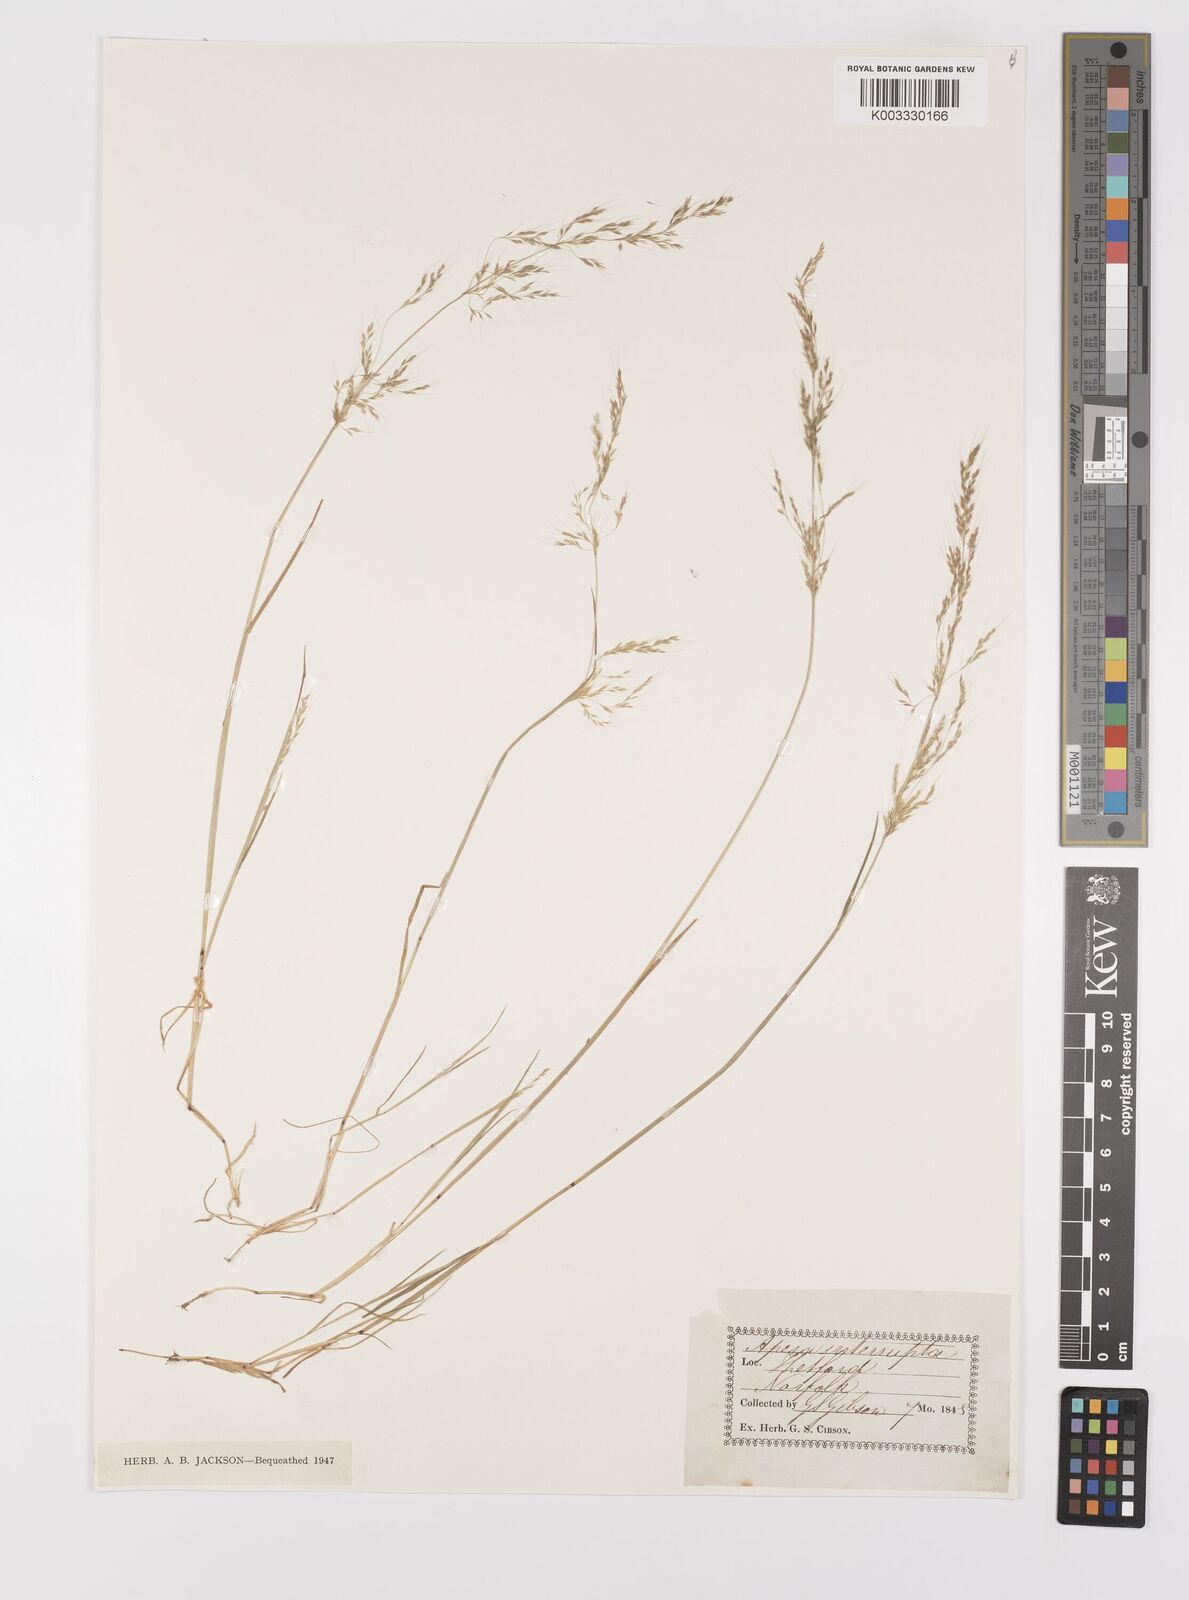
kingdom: Plantae
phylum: Tracheophyta
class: Liliopsida
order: Poales
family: Poaceae
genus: Apera
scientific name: Apera interrupta
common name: Dense silky-bent
